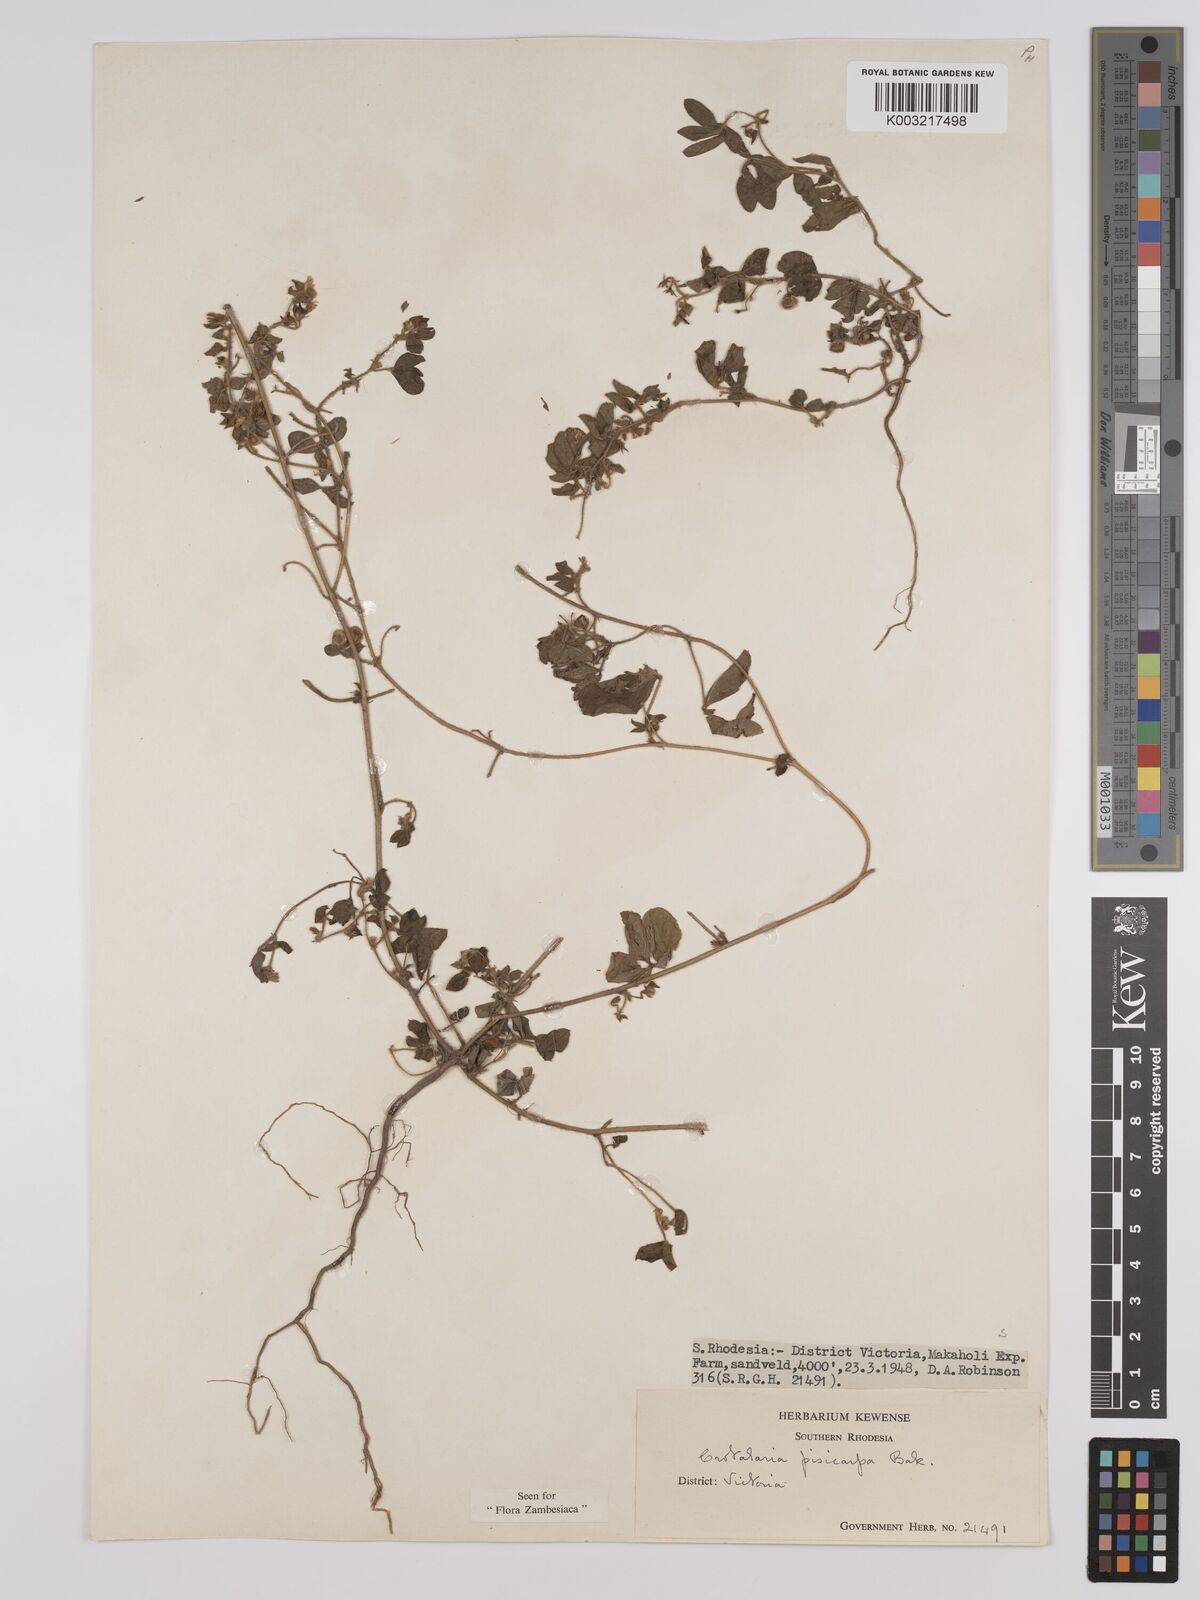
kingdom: Plantae
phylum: Tracheophyta
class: Magnoliopsida
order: Fabales
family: Fabaceae
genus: Crotalaria
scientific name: Crotalaria pisicarpa
